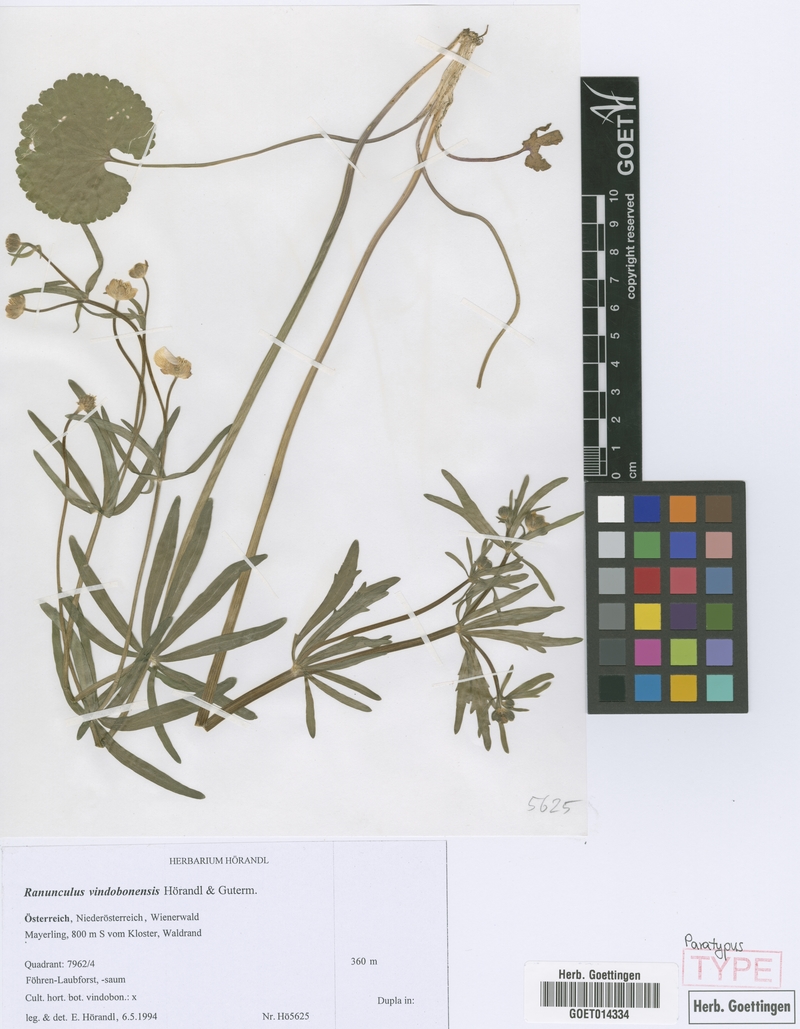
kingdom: Plantae
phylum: Tracheophyta
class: Magnoliopsida
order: Ranunculales
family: Ranunculaceae
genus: Ranunculus
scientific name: Ranunculus vindobonensis
